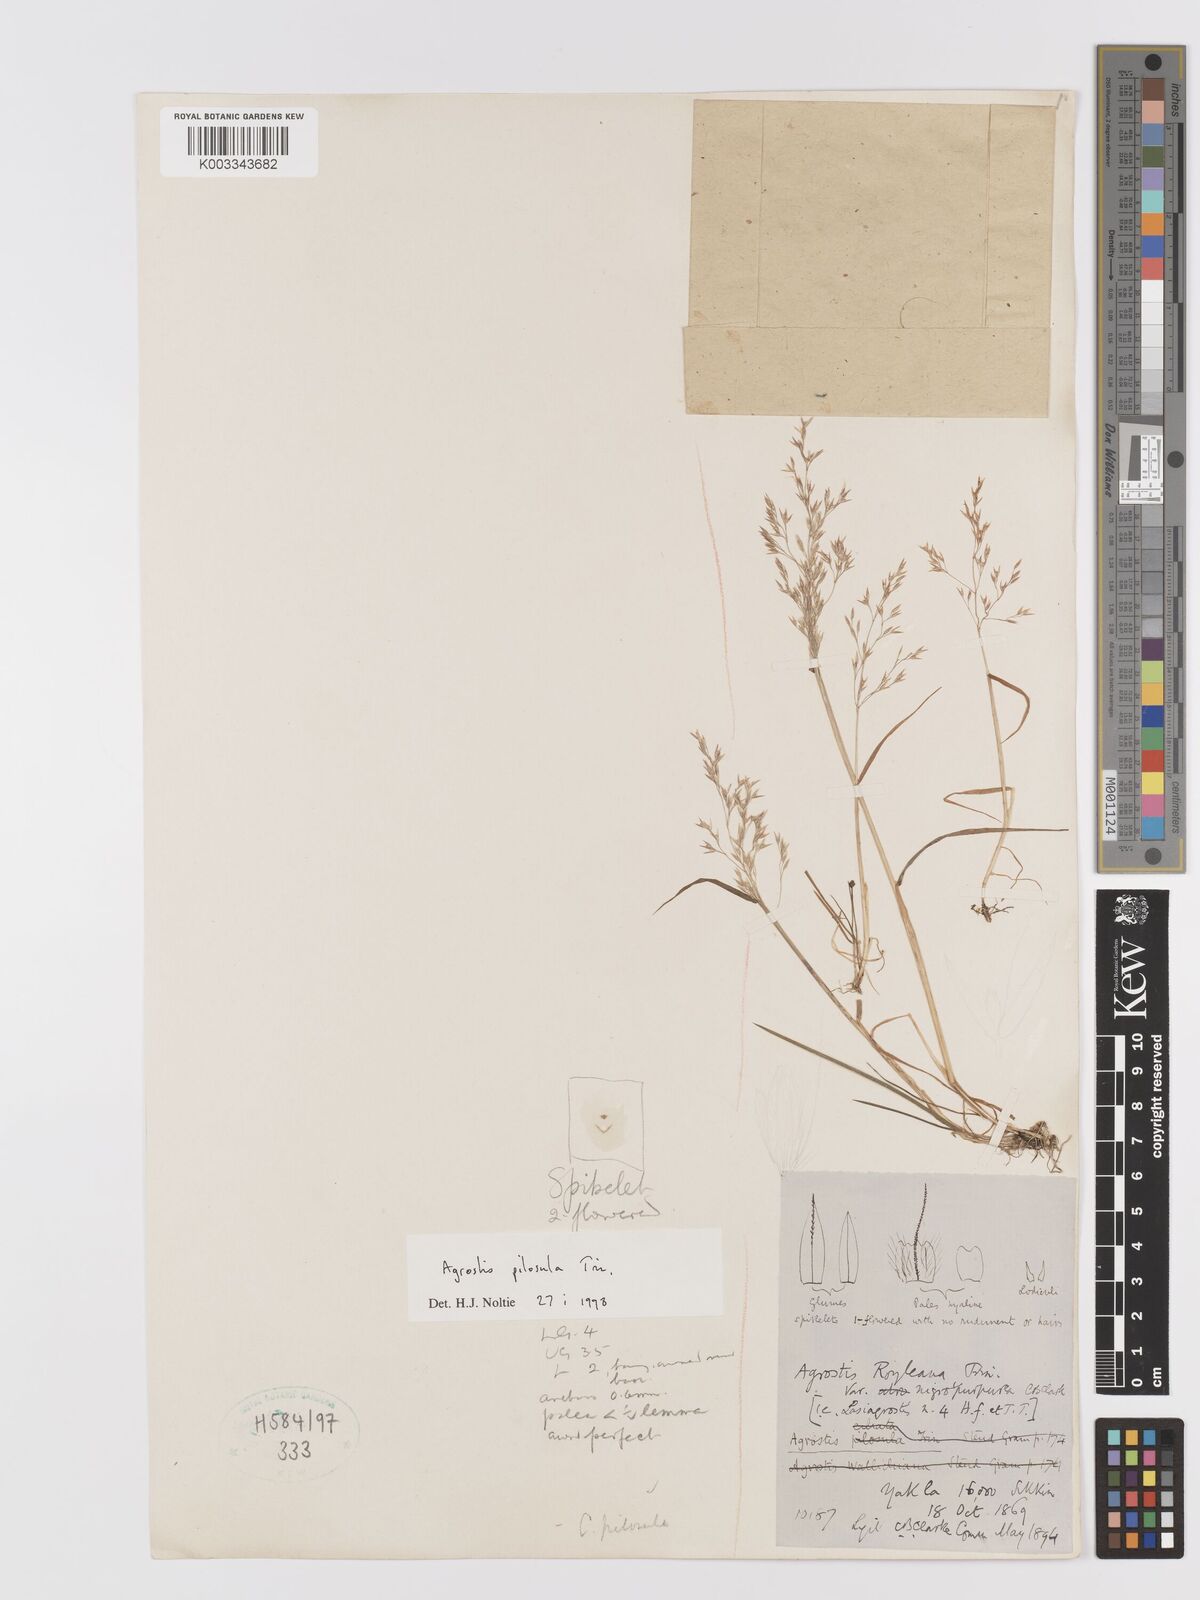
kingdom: Plantae
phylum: Tracheophyta
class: Liliopsida
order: Poales
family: Poaceae
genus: Agrostis
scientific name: Agrostis pilosula
